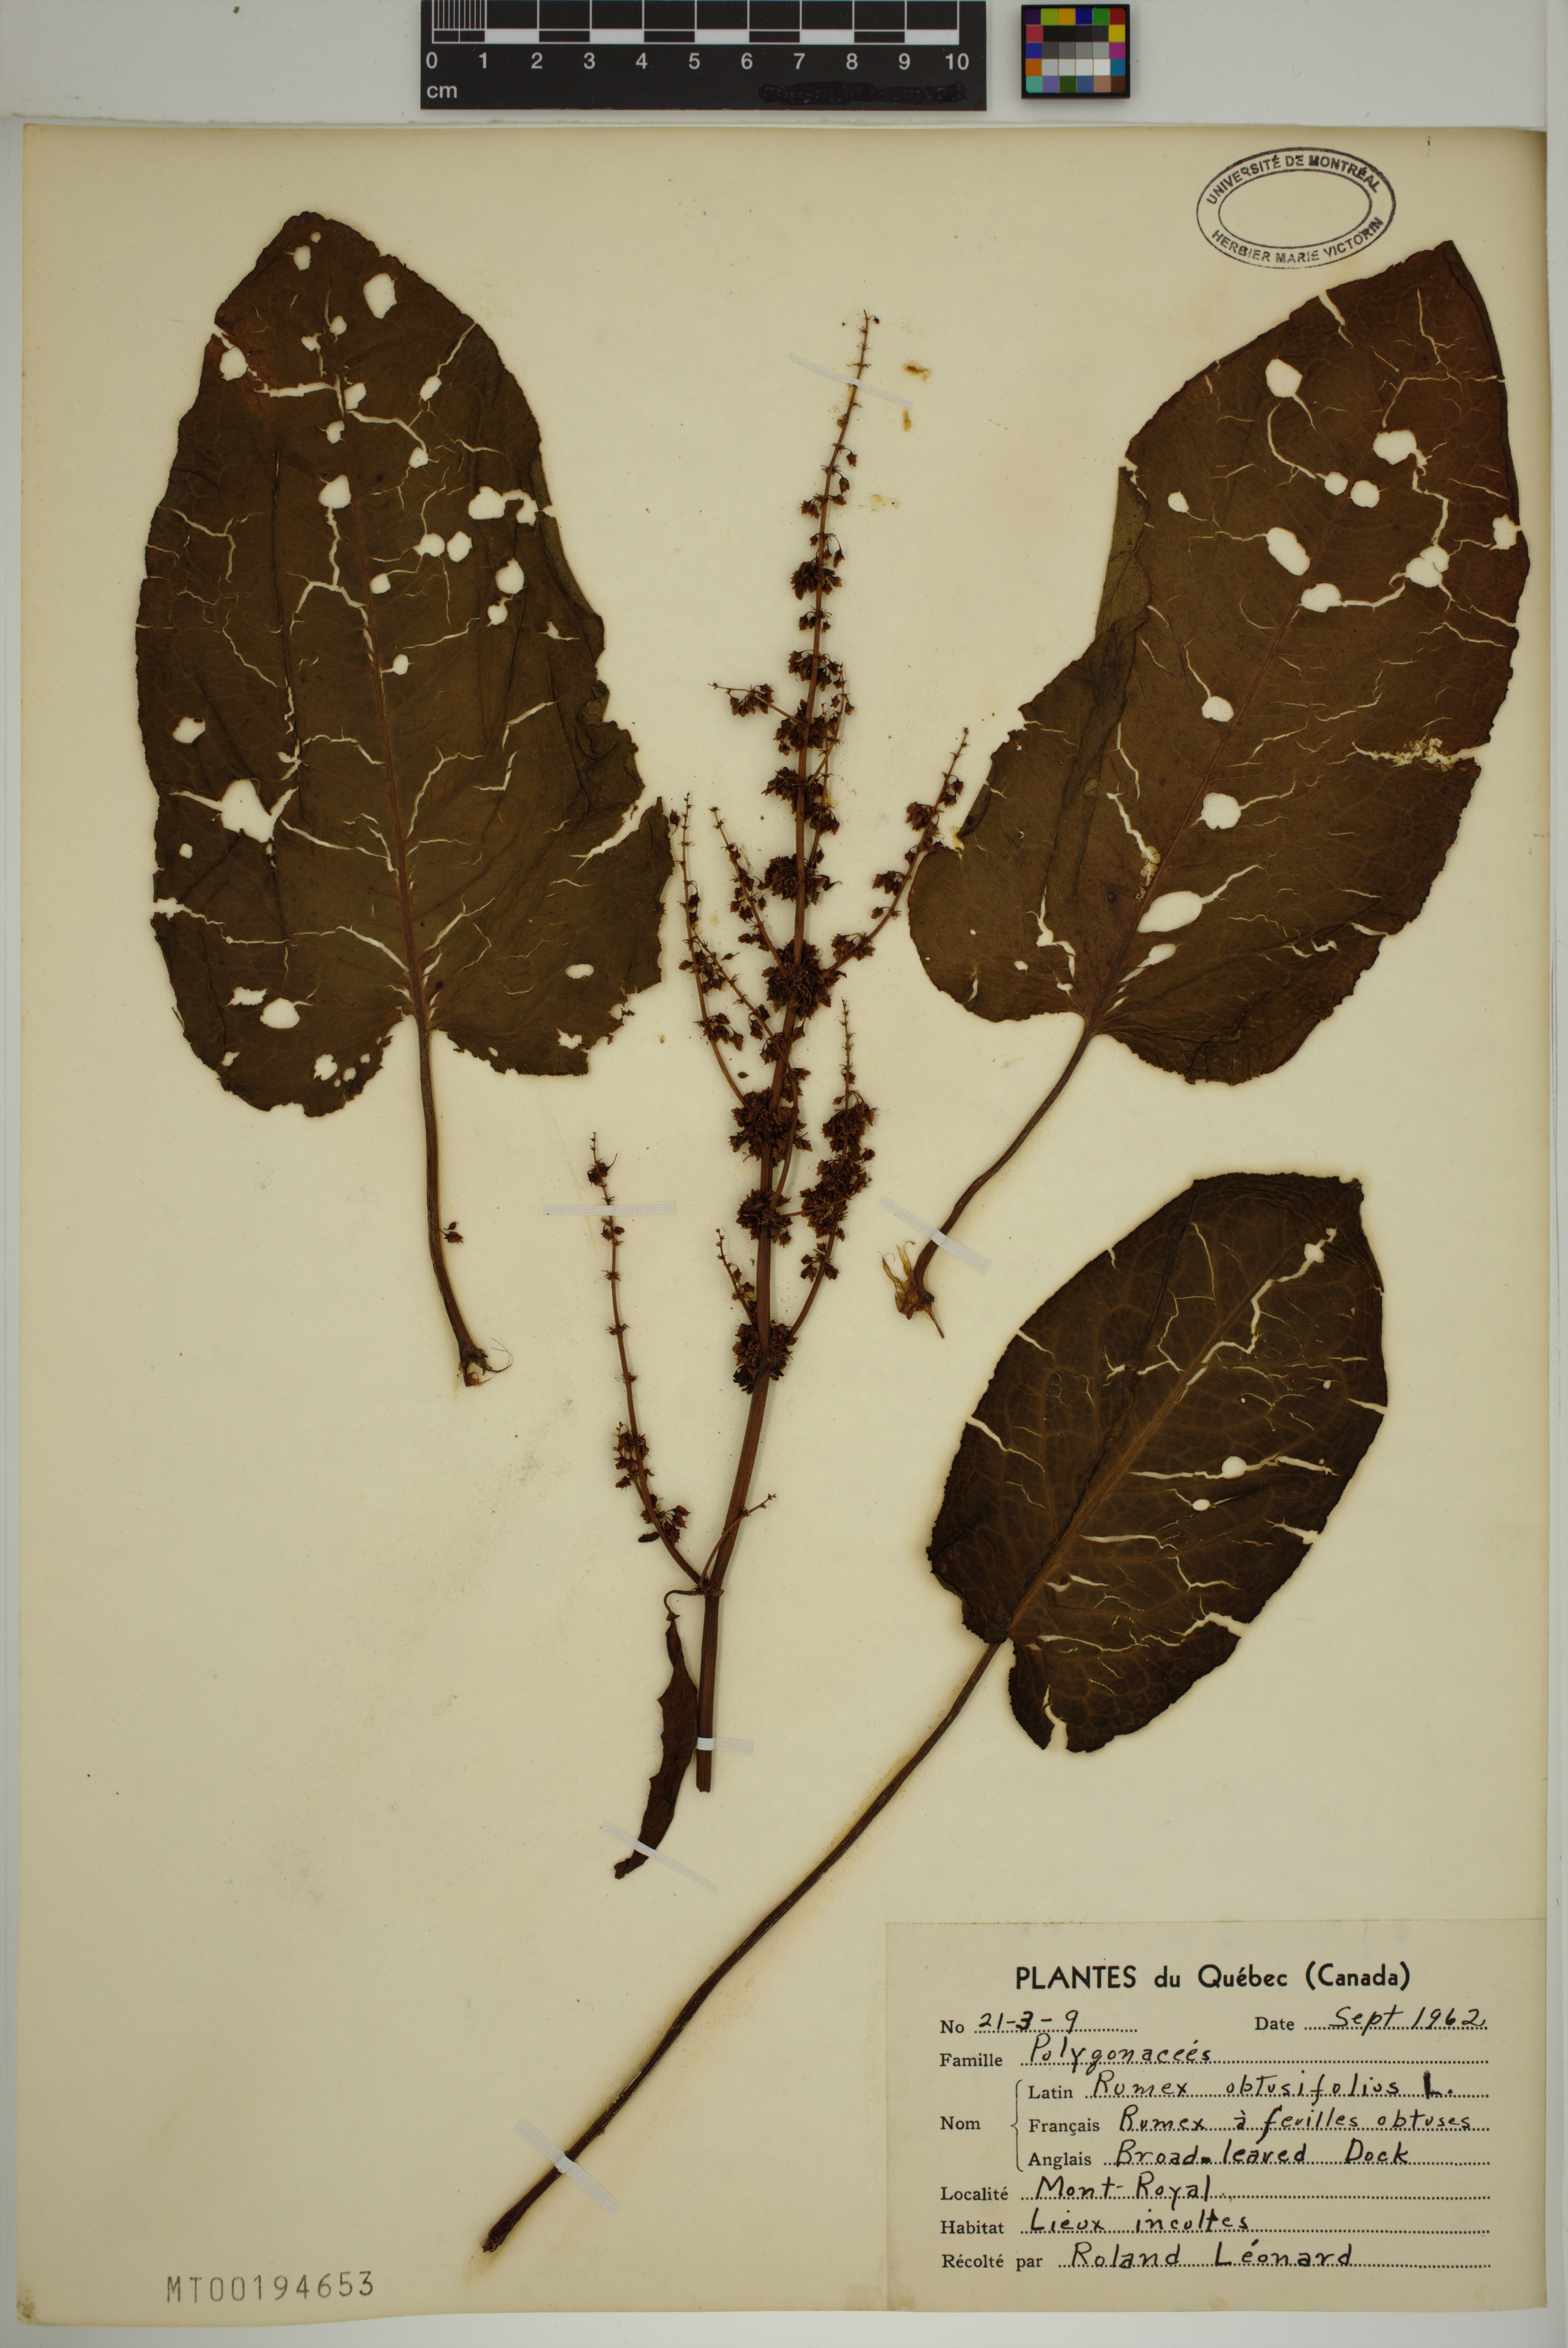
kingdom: Plantae
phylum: Tracheophyta
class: Magnoliopsida
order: Caryophyllales
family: Polygonaceae
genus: Rumex
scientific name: Rumex obtusifolius
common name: Bitter dock
